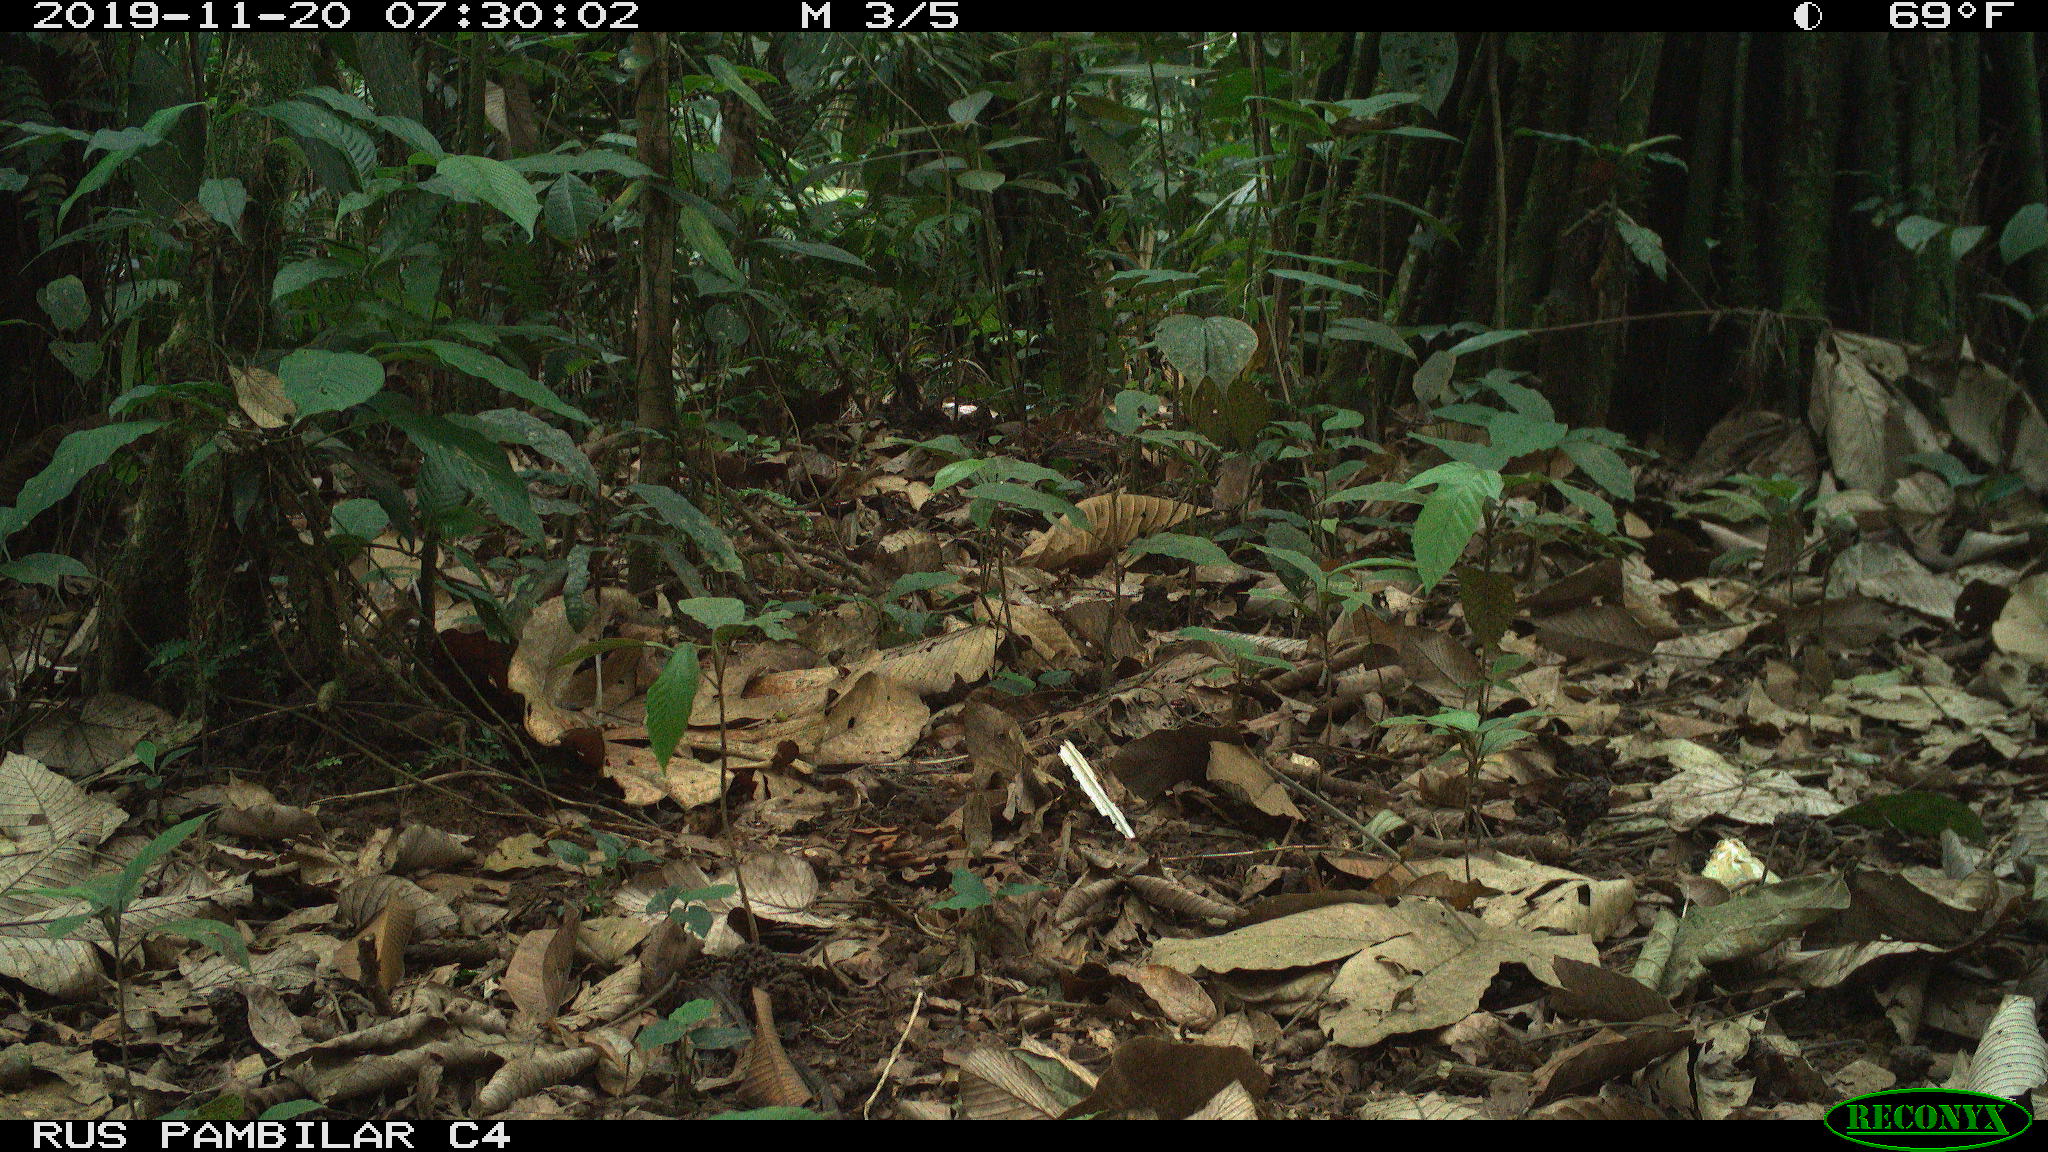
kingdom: Animalia
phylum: Chordata
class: Mammalia
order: Rodentia
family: Dasyproctidae
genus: Dasyprocta
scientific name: Dasyprocta punctata
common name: Central american agouti
